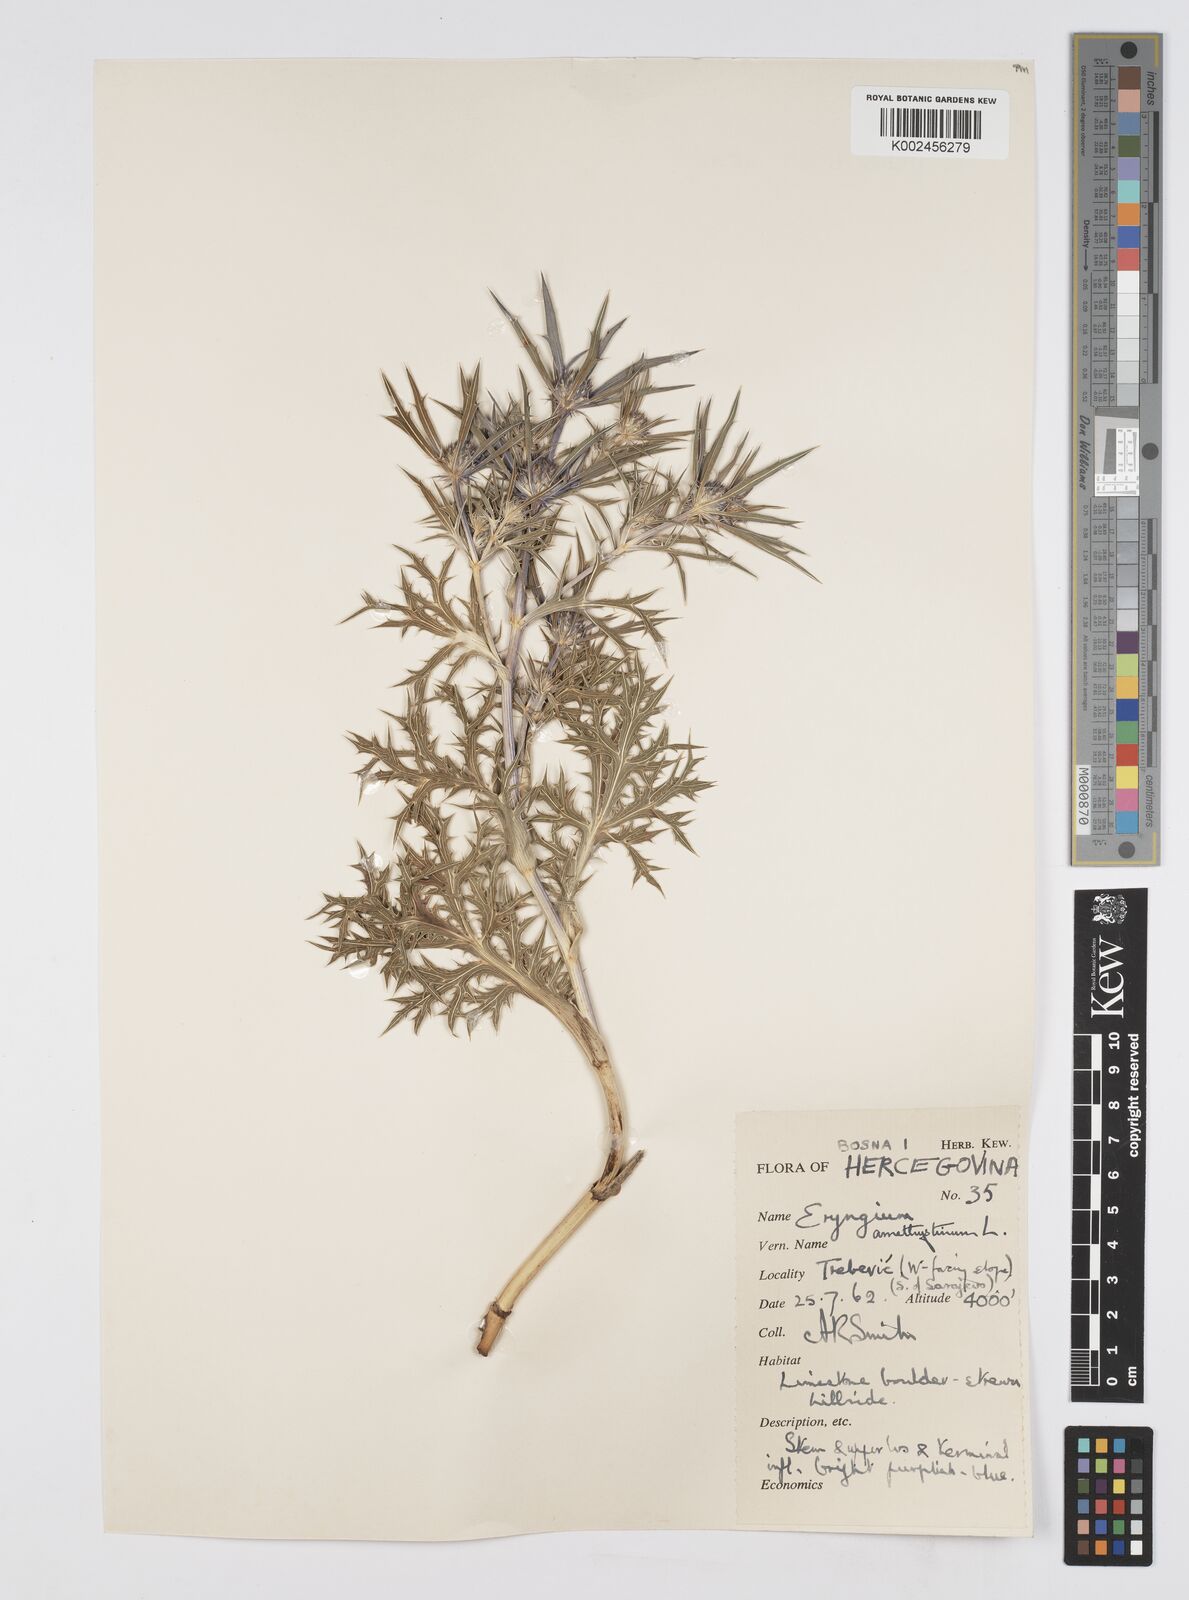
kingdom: Plantae
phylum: Tracheophyta
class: Magnoliopsida
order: Apiales
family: Apiaceae
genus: Eryngium
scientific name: Eryngium amethystinum
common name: Amethyst eryngo
